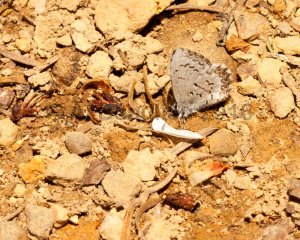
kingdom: Animalia
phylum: Arthropoda
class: Insecta
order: Lepidoptera
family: Lycaenidae
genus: Celastrina
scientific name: Celastrina lucia
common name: Northern Spring Azure
